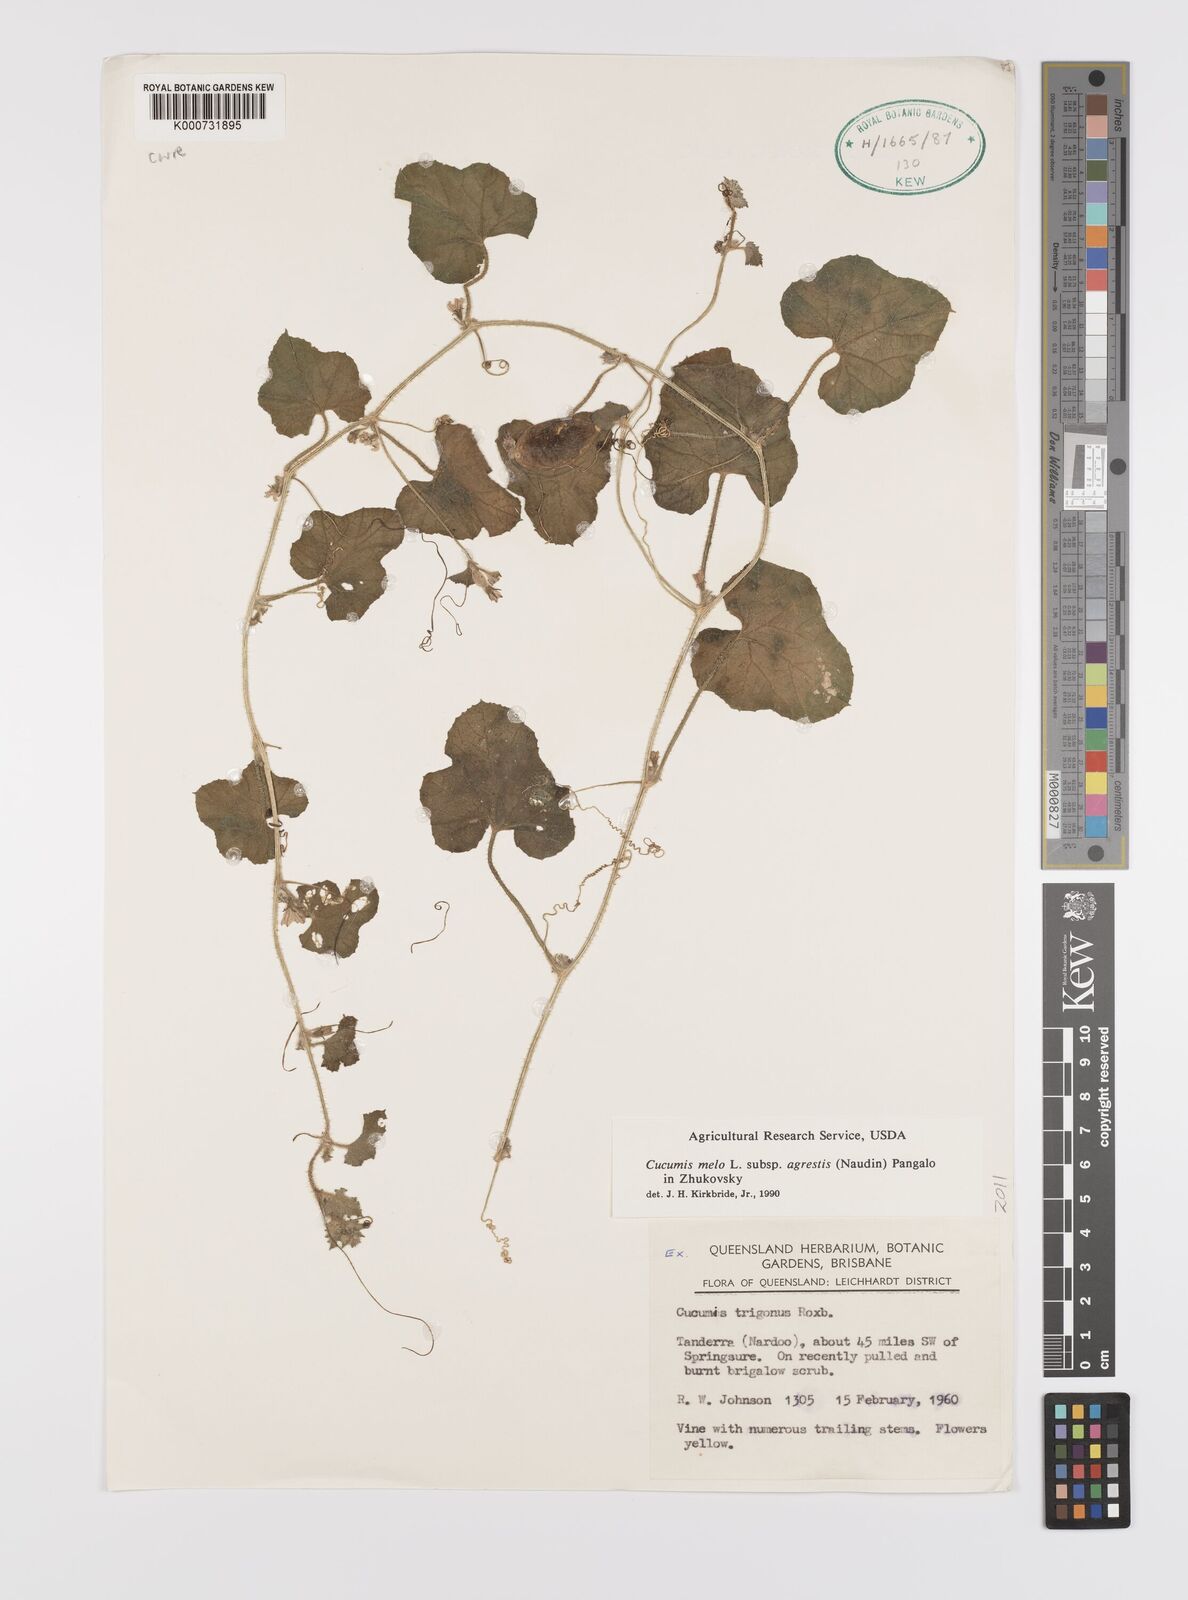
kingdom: Plantae
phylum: Tracheophyta
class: Magnoliopsida
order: Cucurbitales
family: Cucurbitaceae
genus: Cucumis
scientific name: Cucumis melo
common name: Melon
